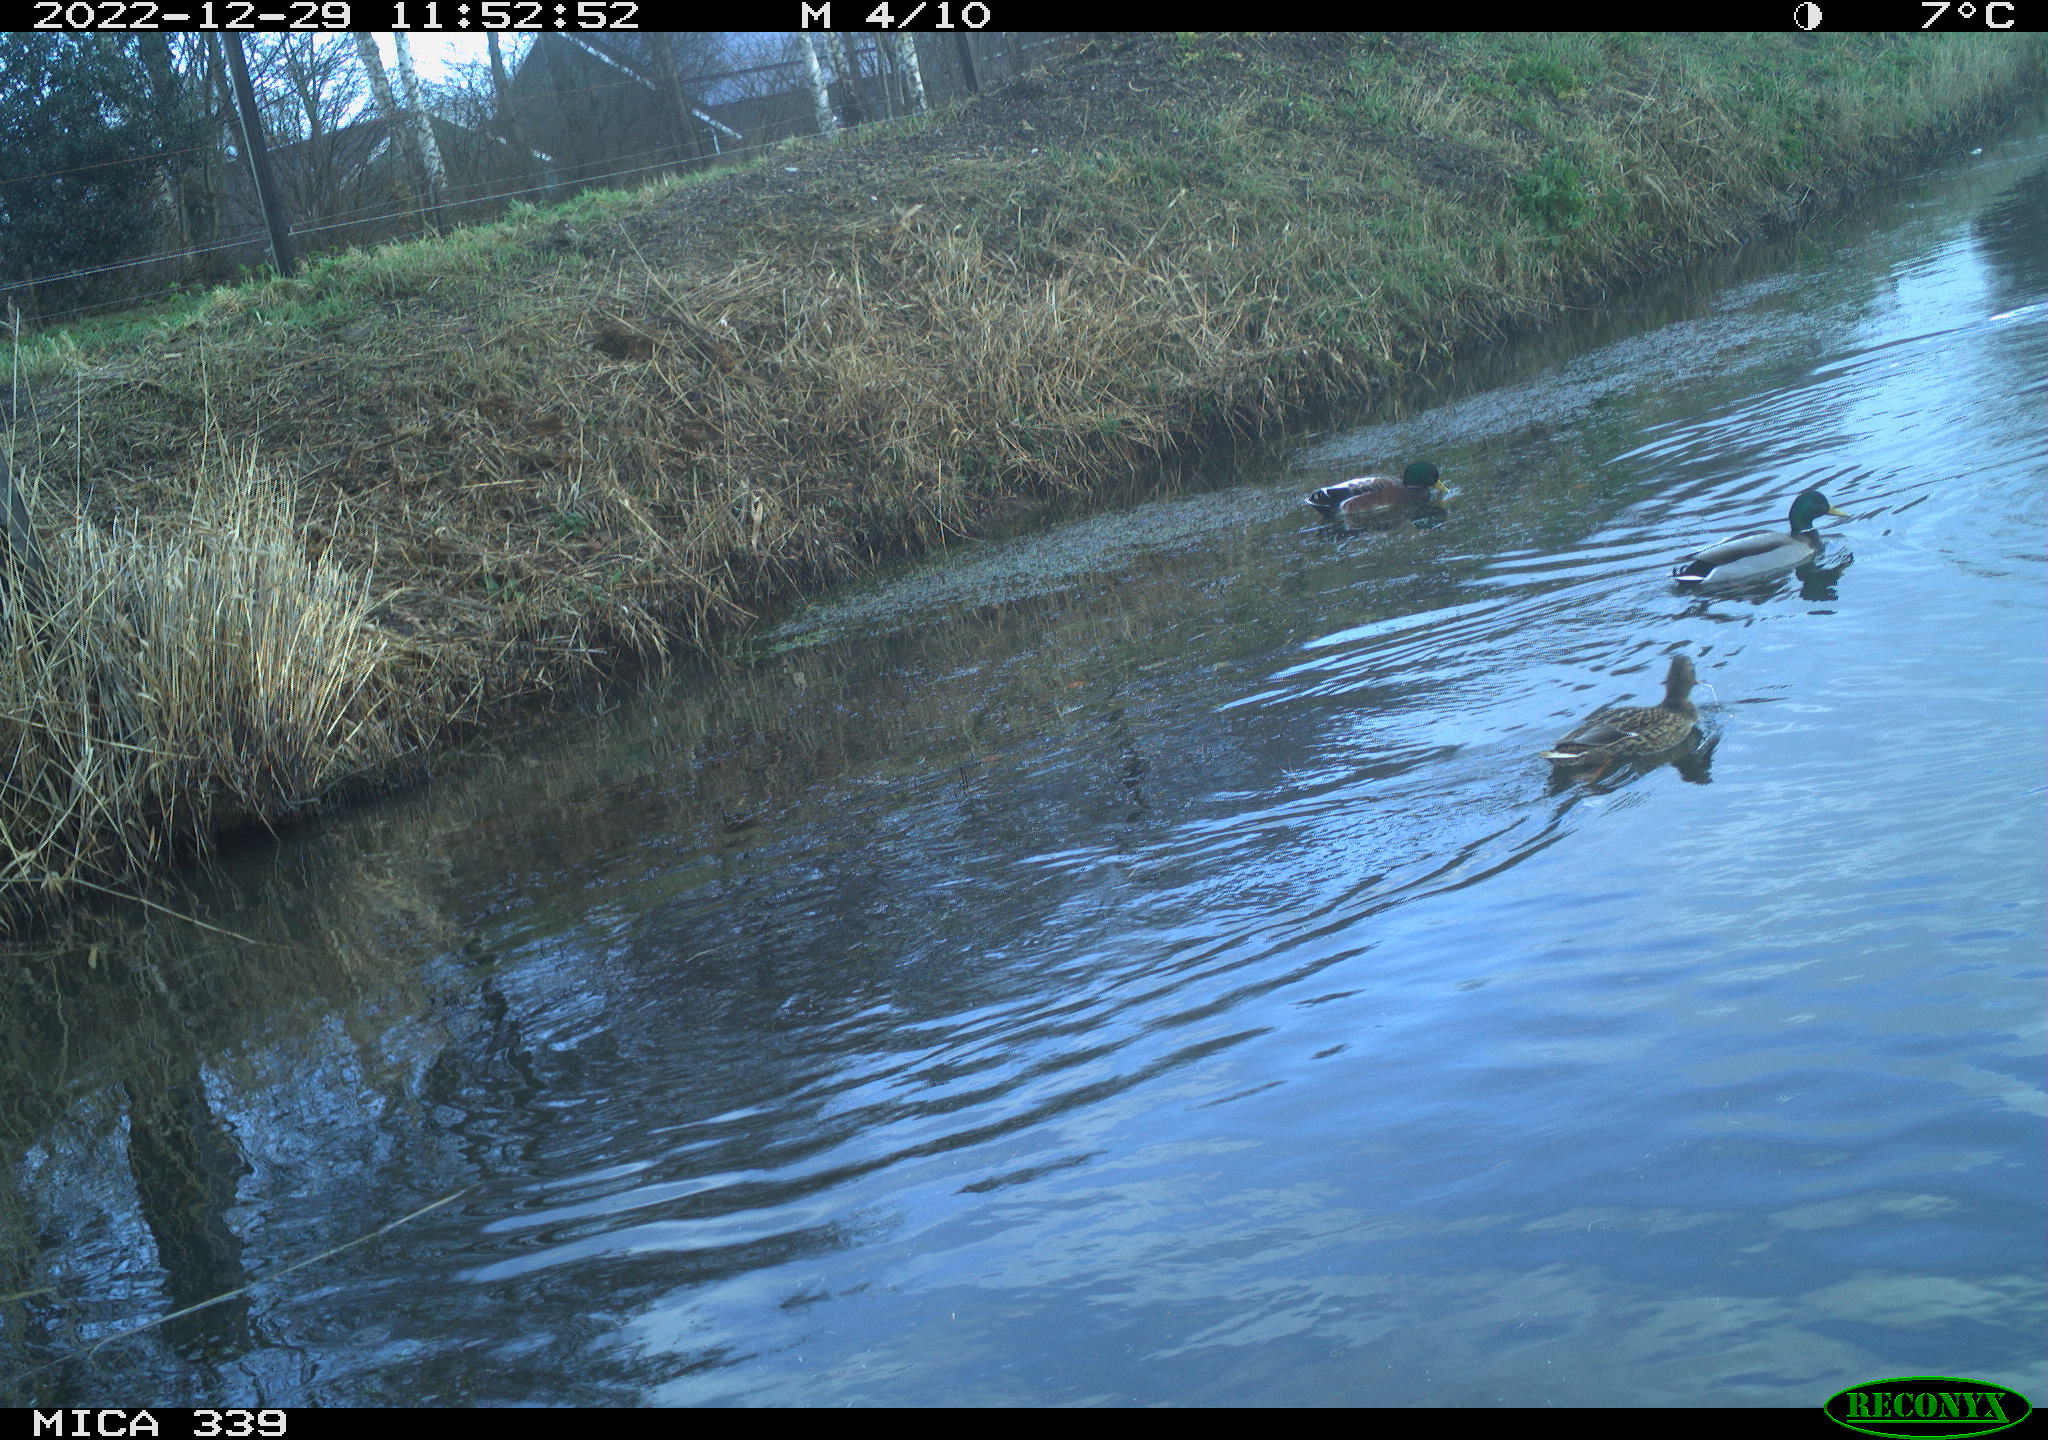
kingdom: Animalia
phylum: Chordata
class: Aves
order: Anseriformes
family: Anatidae
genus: Anas
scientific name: Anas
